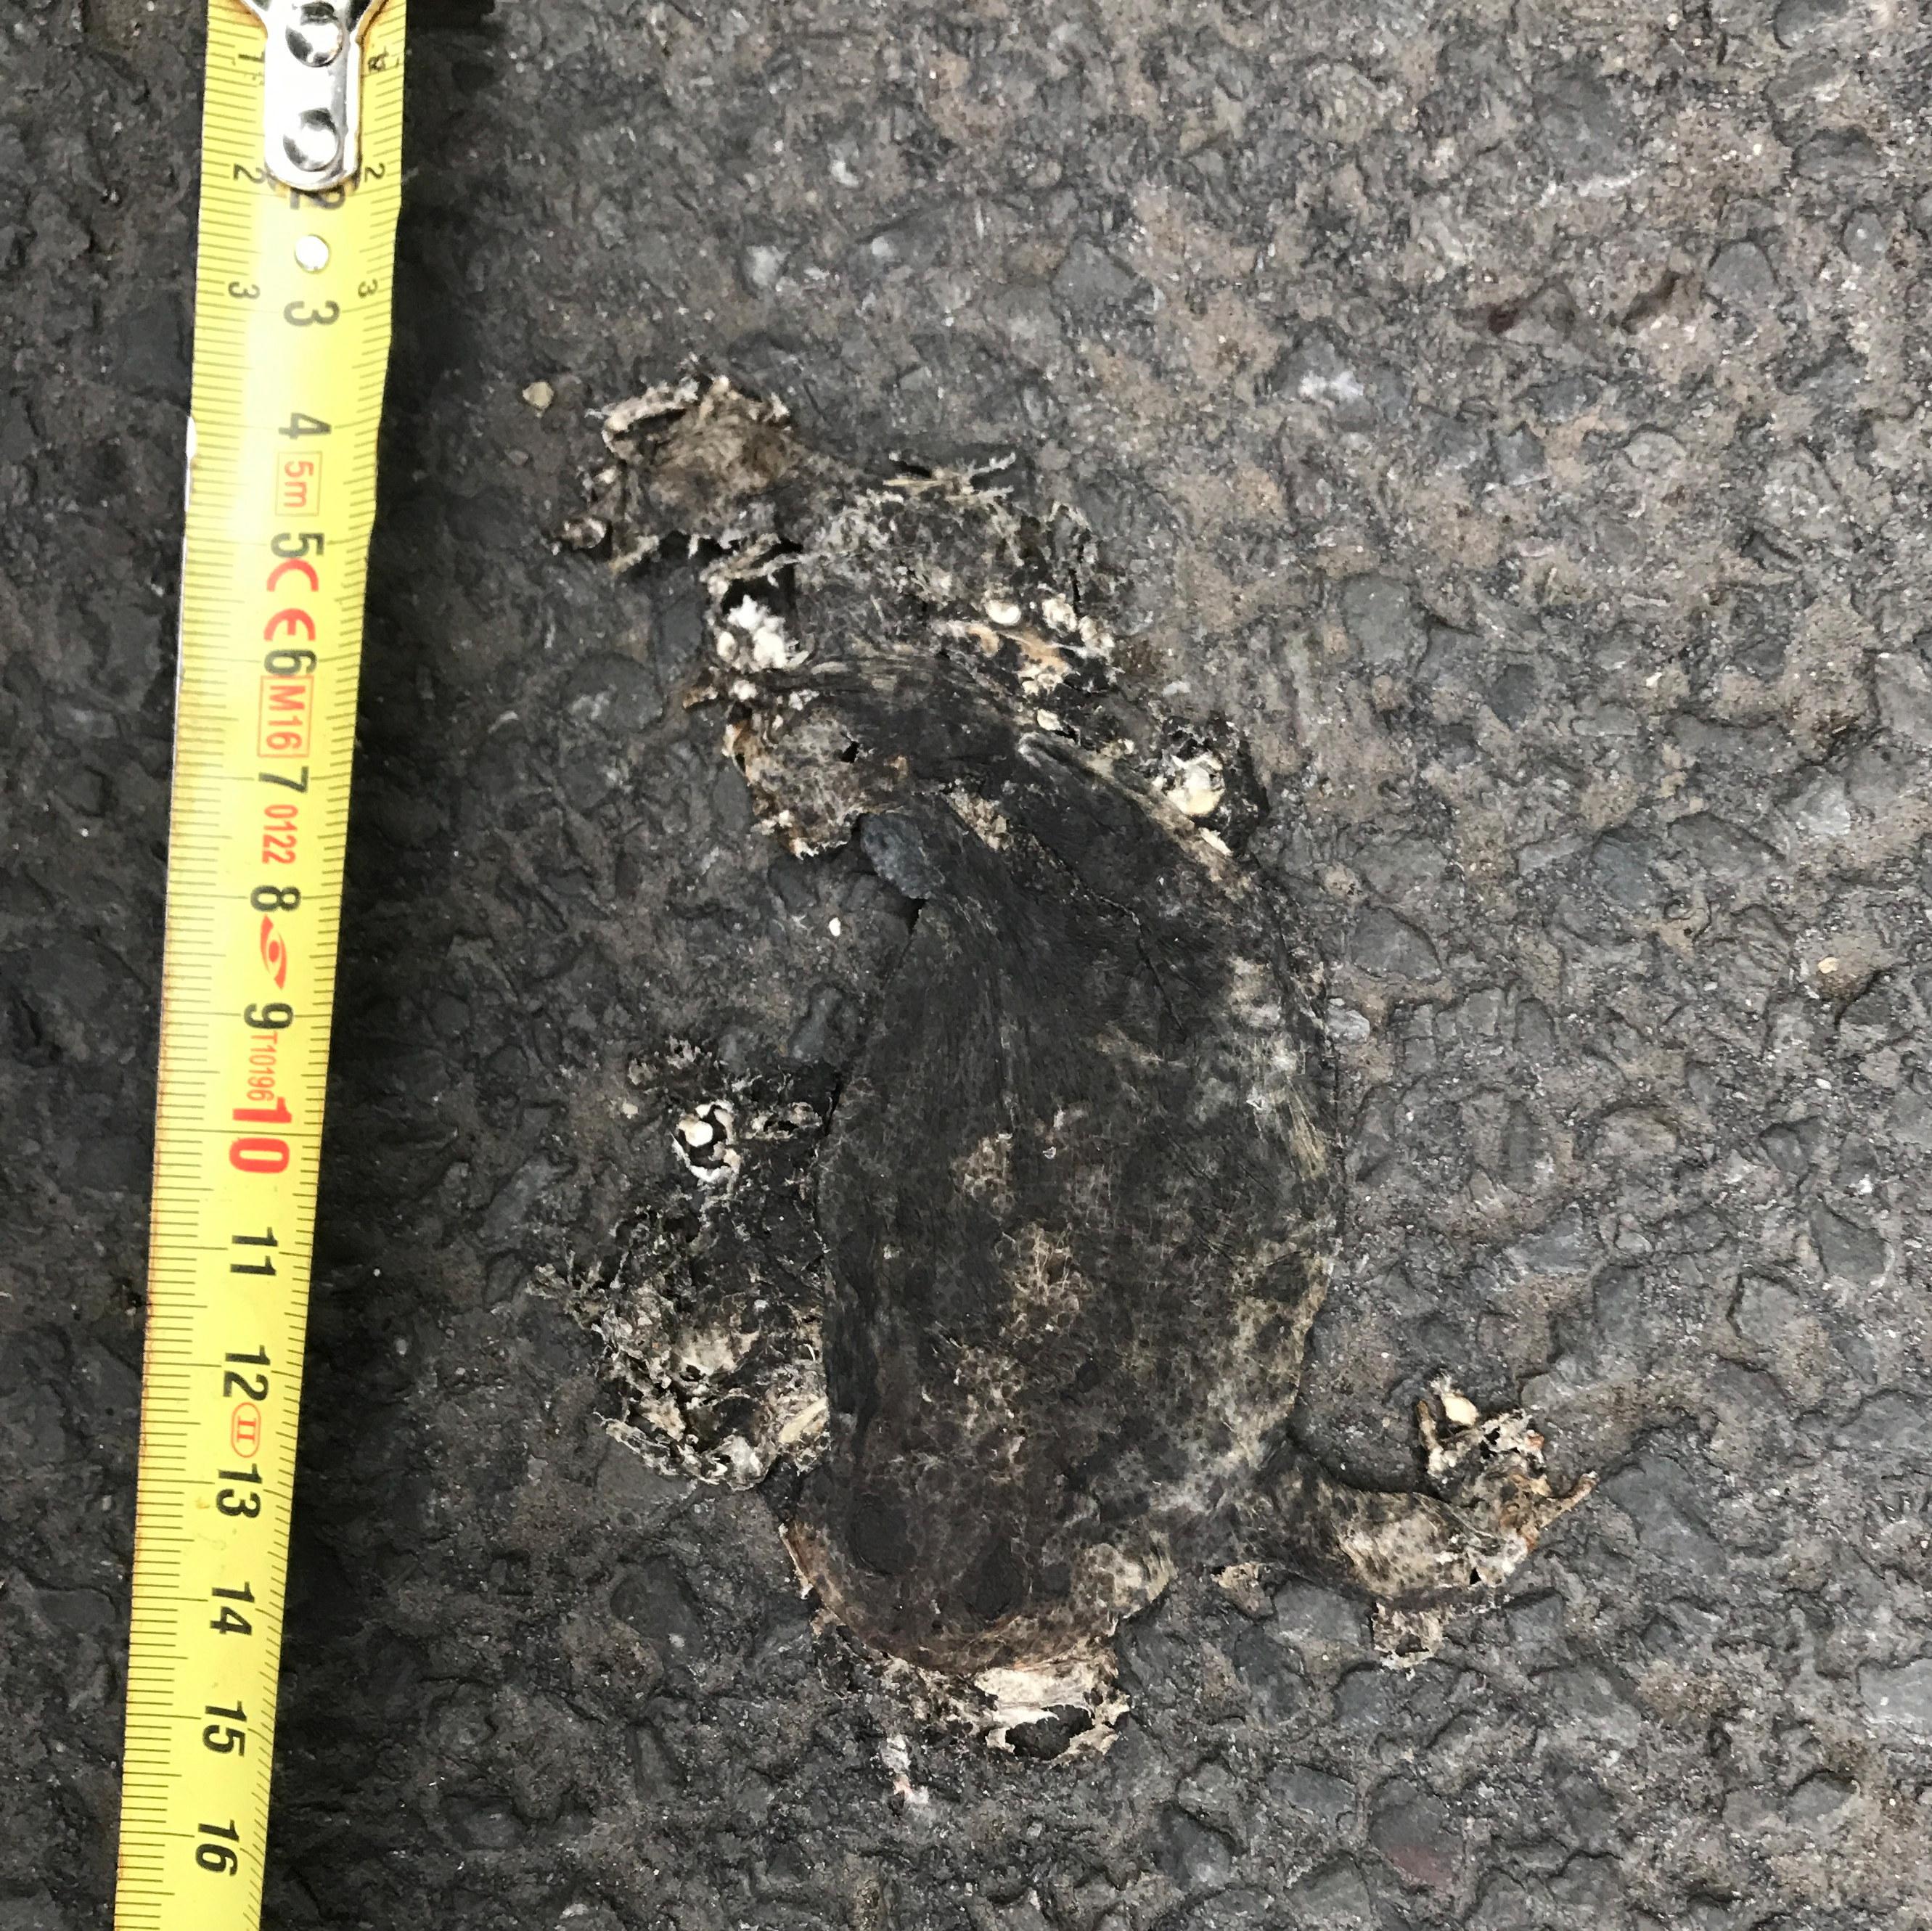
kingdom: Animalia
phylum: Chordata
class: Amphibia
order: Anura
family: Bufonidae
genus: Bufo
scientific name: Bufo bufo
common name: Common toad
